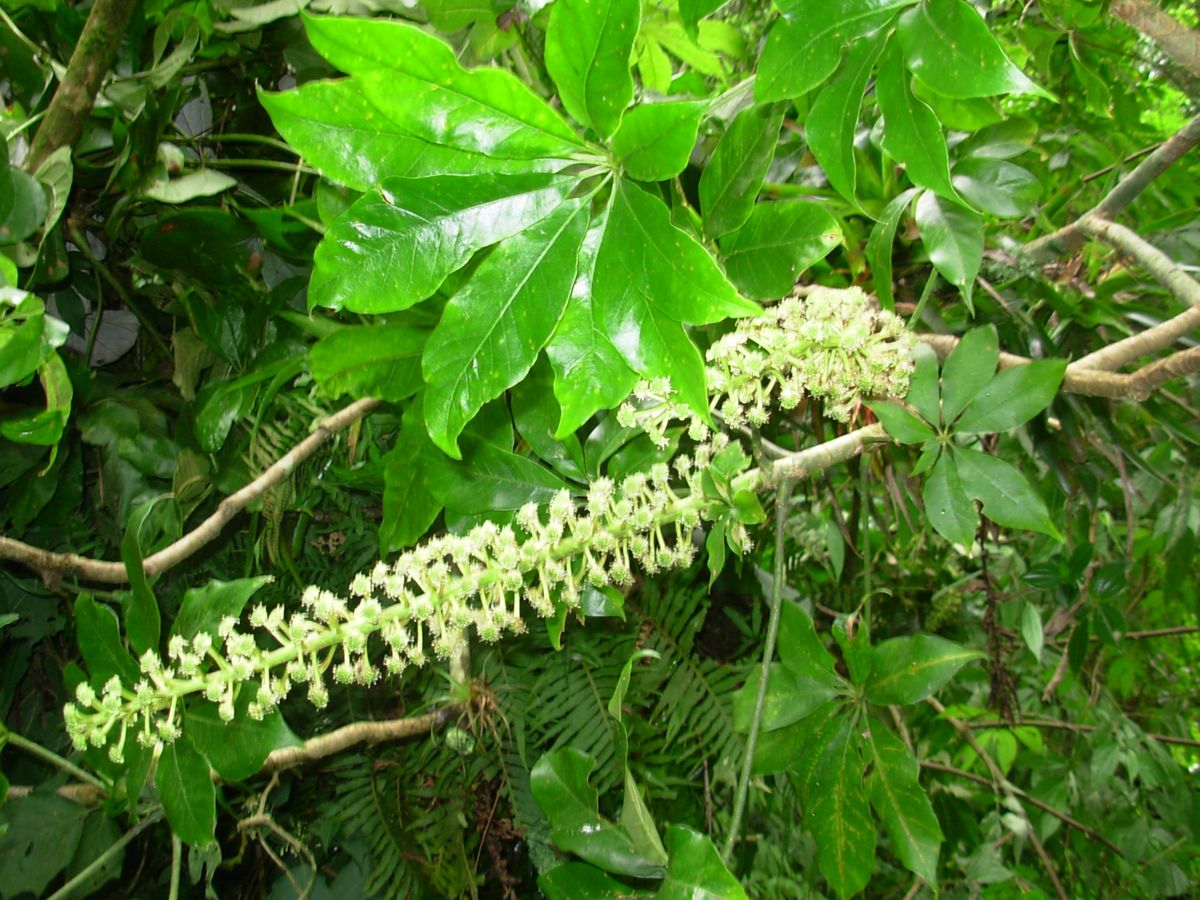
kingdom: Plantae
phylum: Tracheophyta
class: Magnoliopsida
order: Apiales
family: Araliaceae
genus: Oreopanax
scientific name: Oreopanax xalapensis
